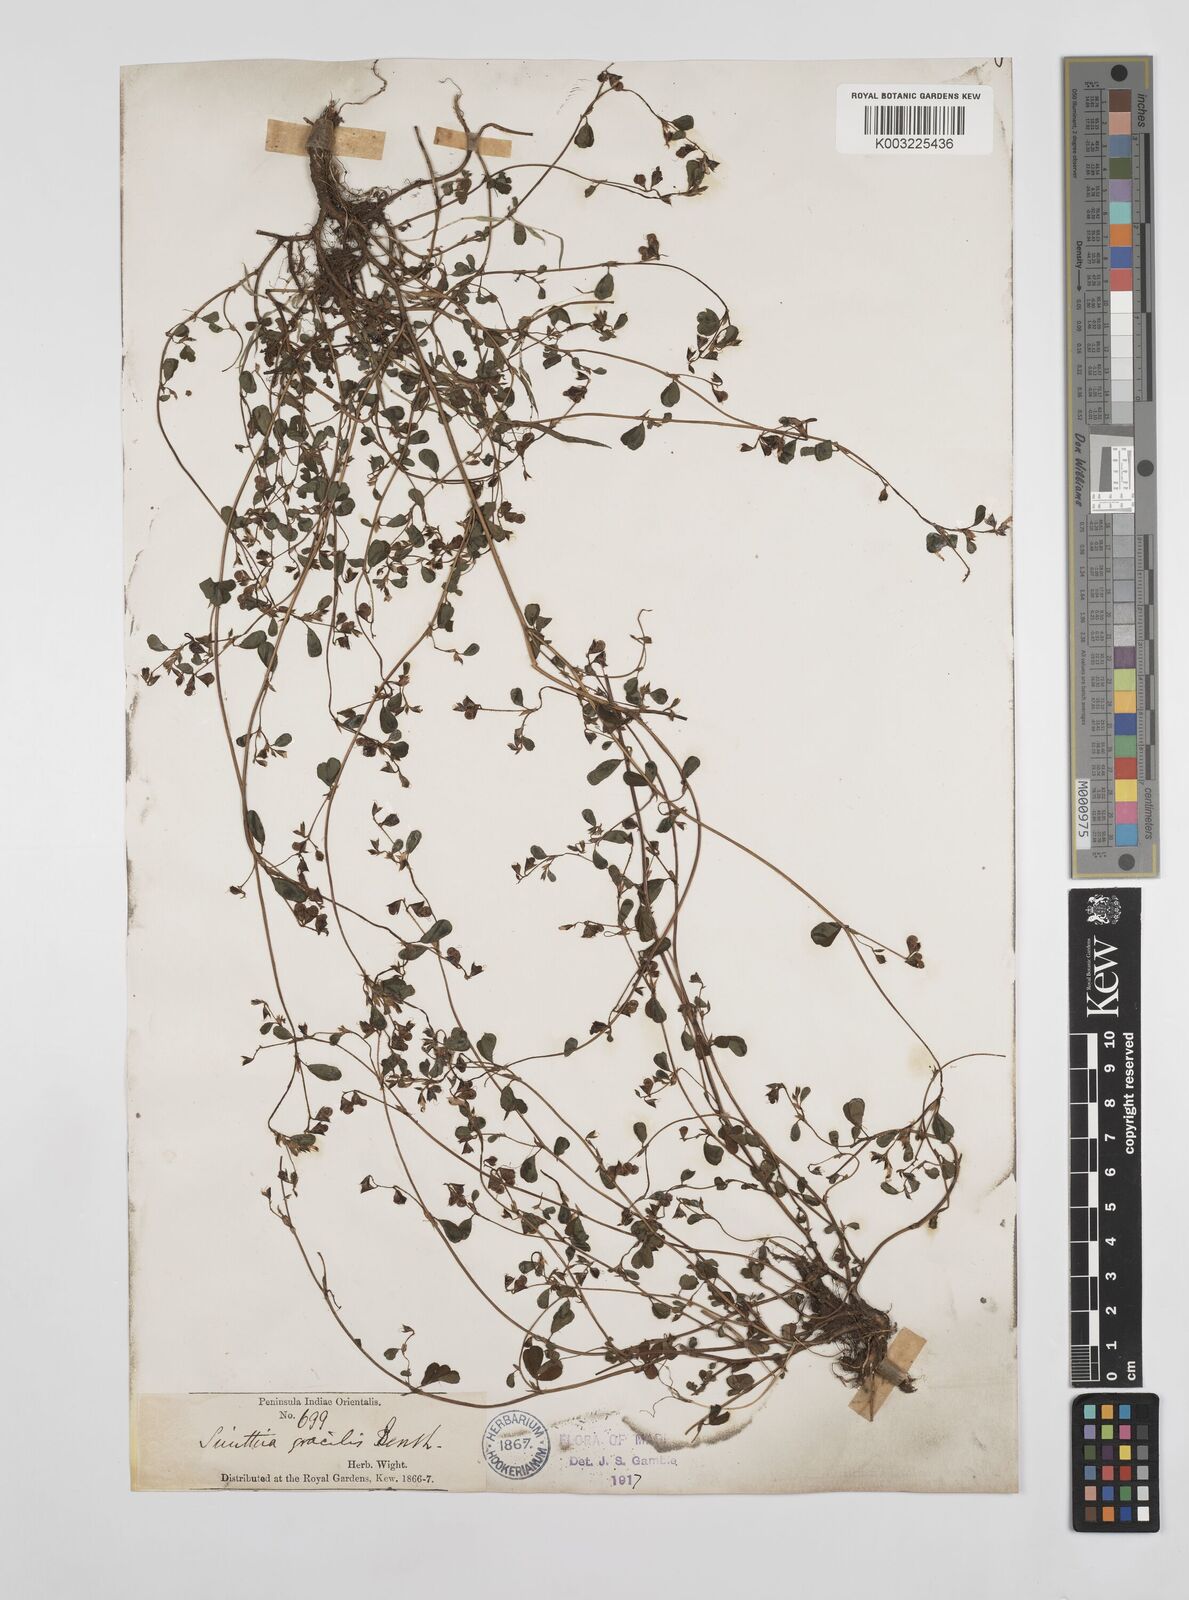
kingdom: Plantae
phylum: Tracheophyta
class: Magnoliopsida
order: Fabales
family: Fabaceae
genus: Smithia
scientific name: Smithia gracilis
